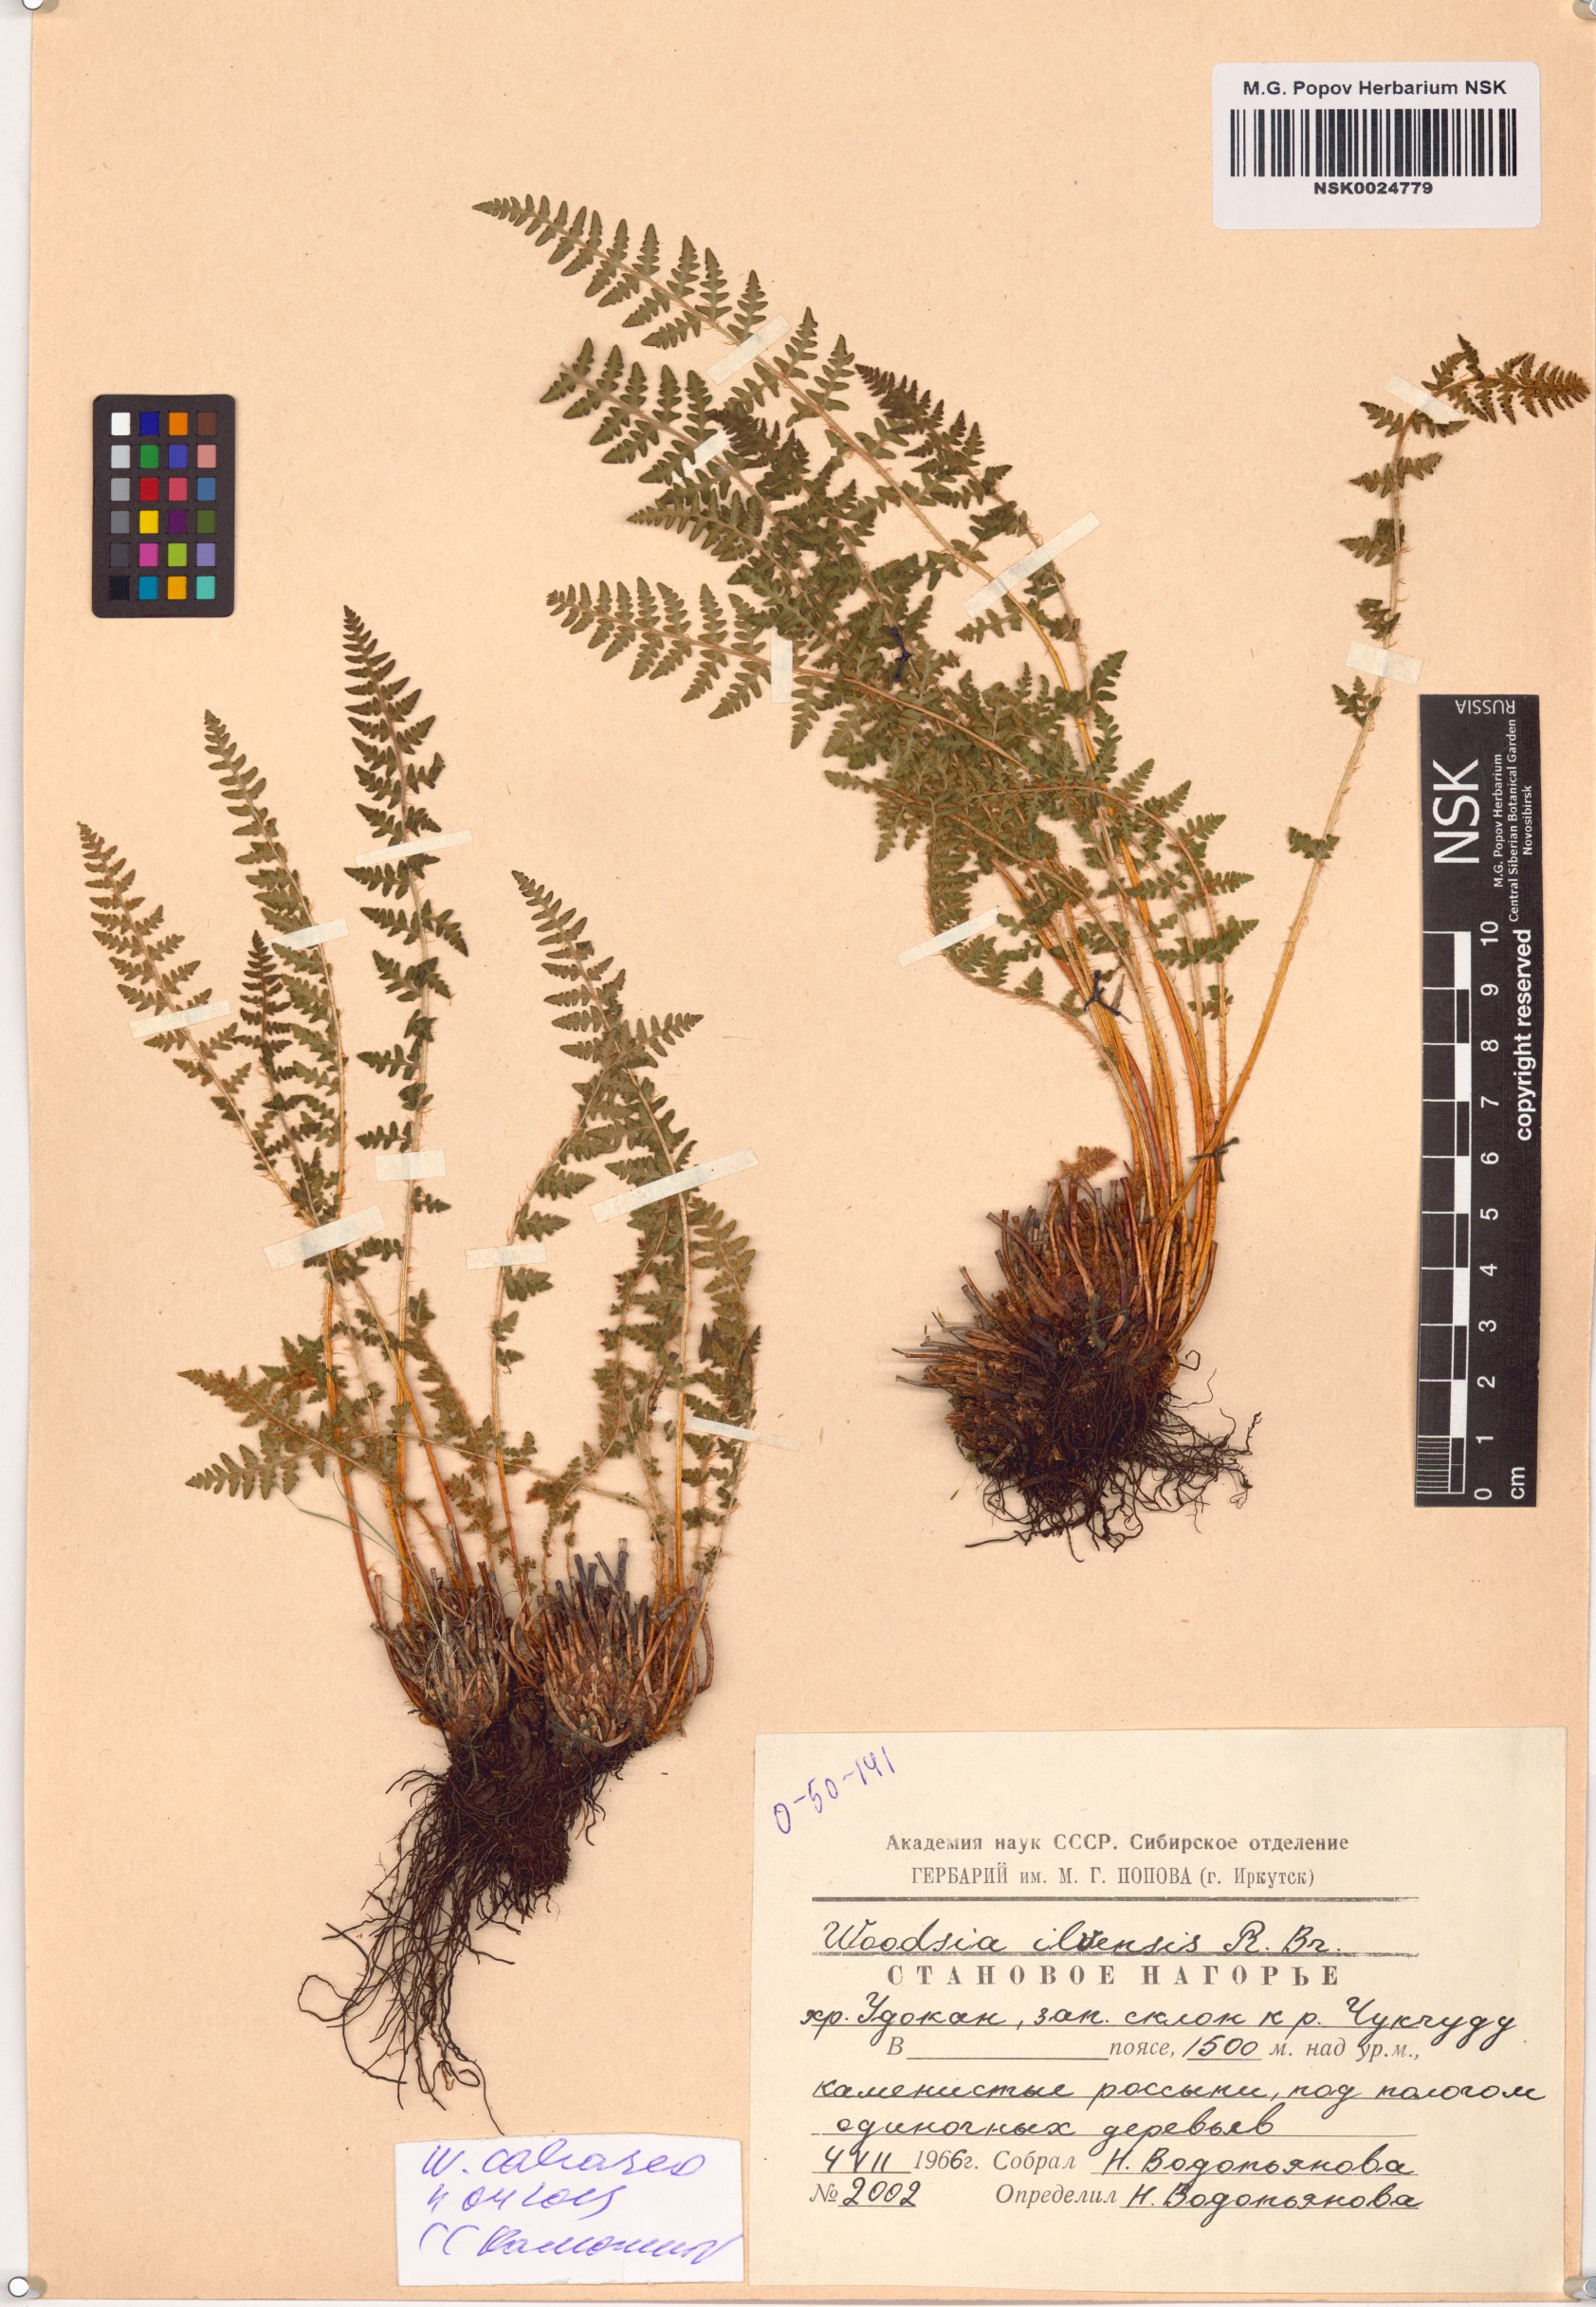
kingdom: Plantae
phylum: Tracheophyta
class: Polypodiopsida
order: Polypodiales
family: Woodsiaceae
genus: Woodsia
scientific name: Woodsia calcarea
